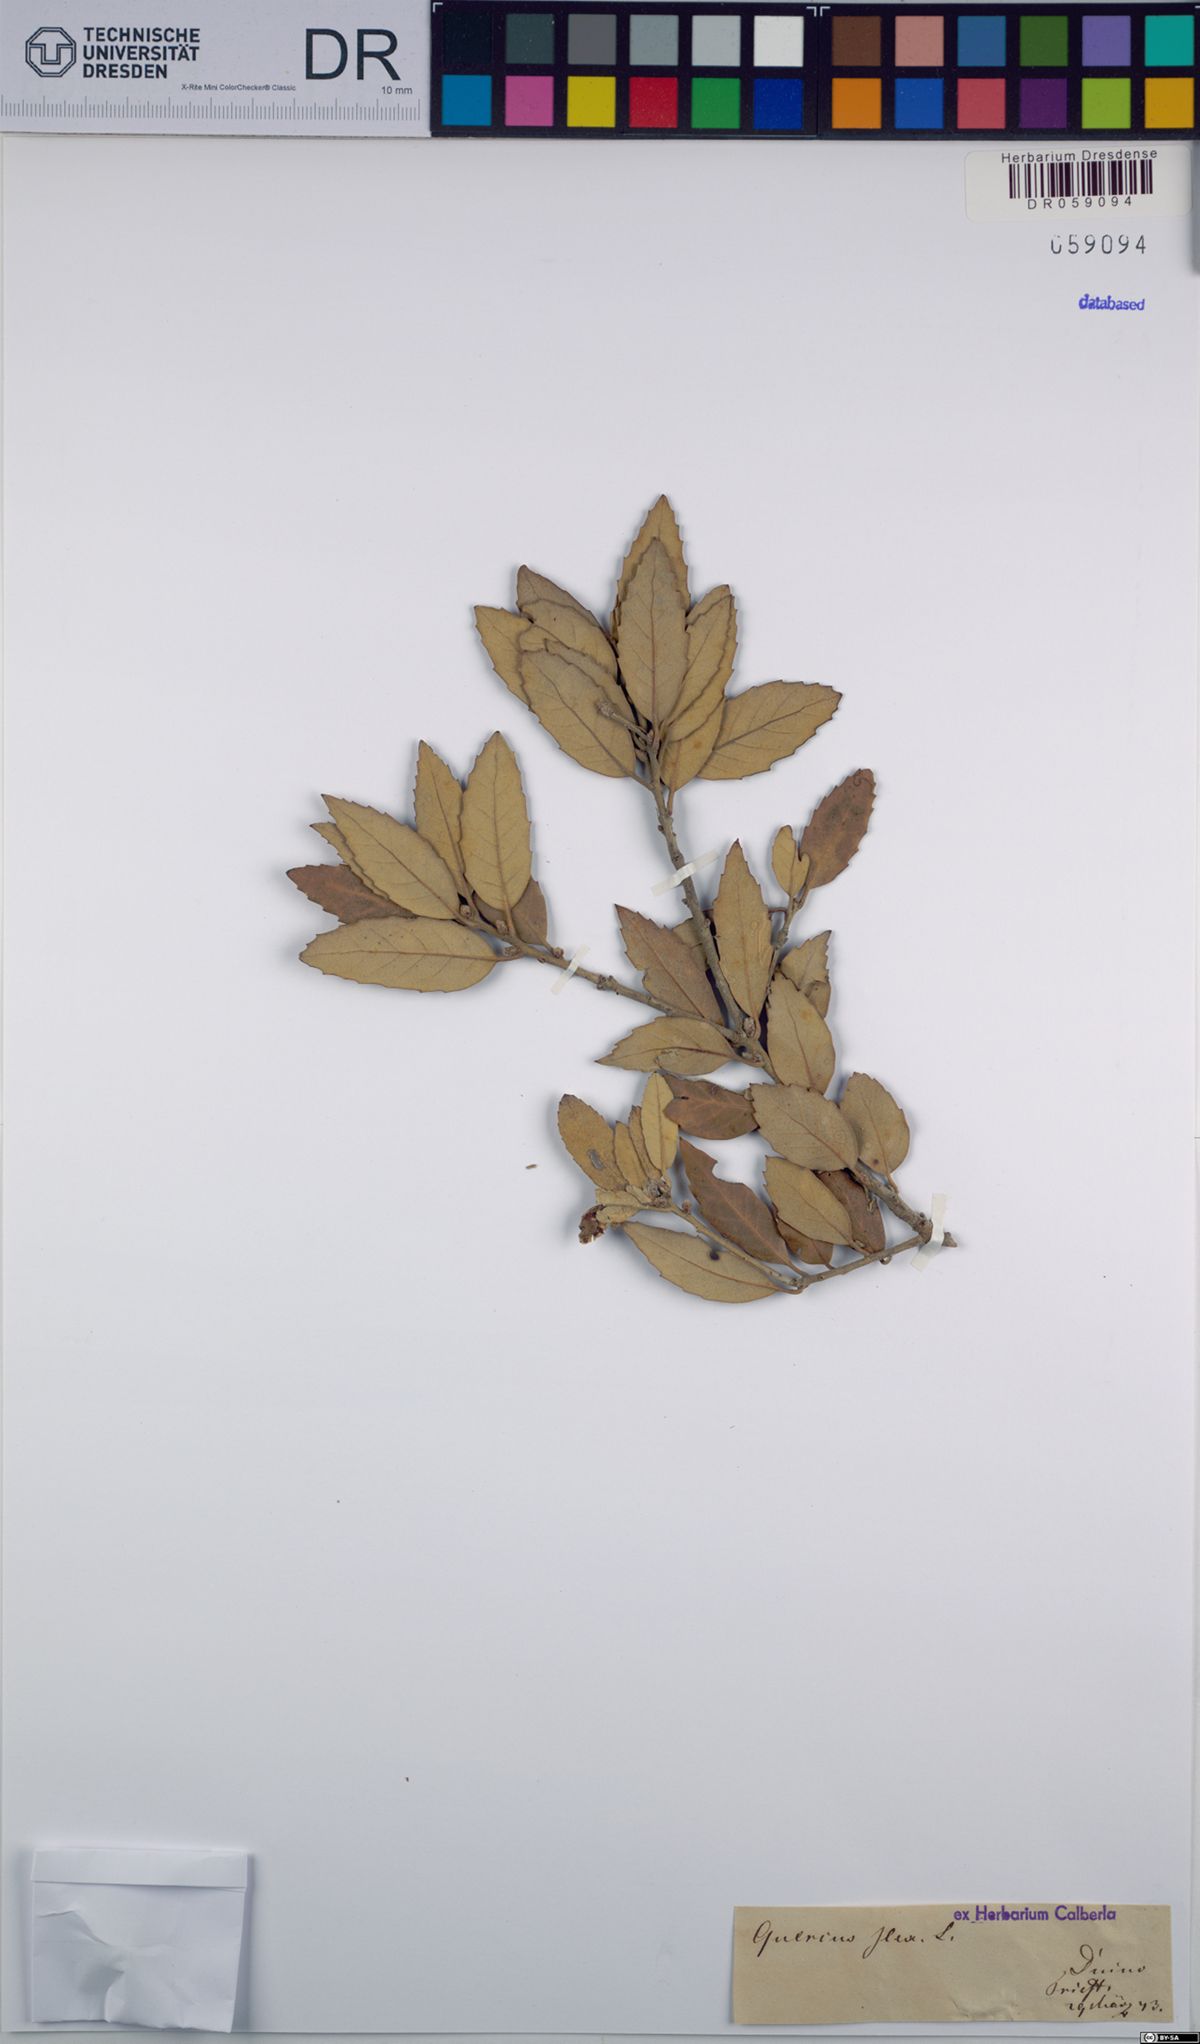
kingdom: Plantae
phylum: Tracheophyta
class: Magnoliopsida
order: Fagales
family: Fagaceae
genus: Quercus
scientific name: Quercus ilex
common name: Evergreen oak
